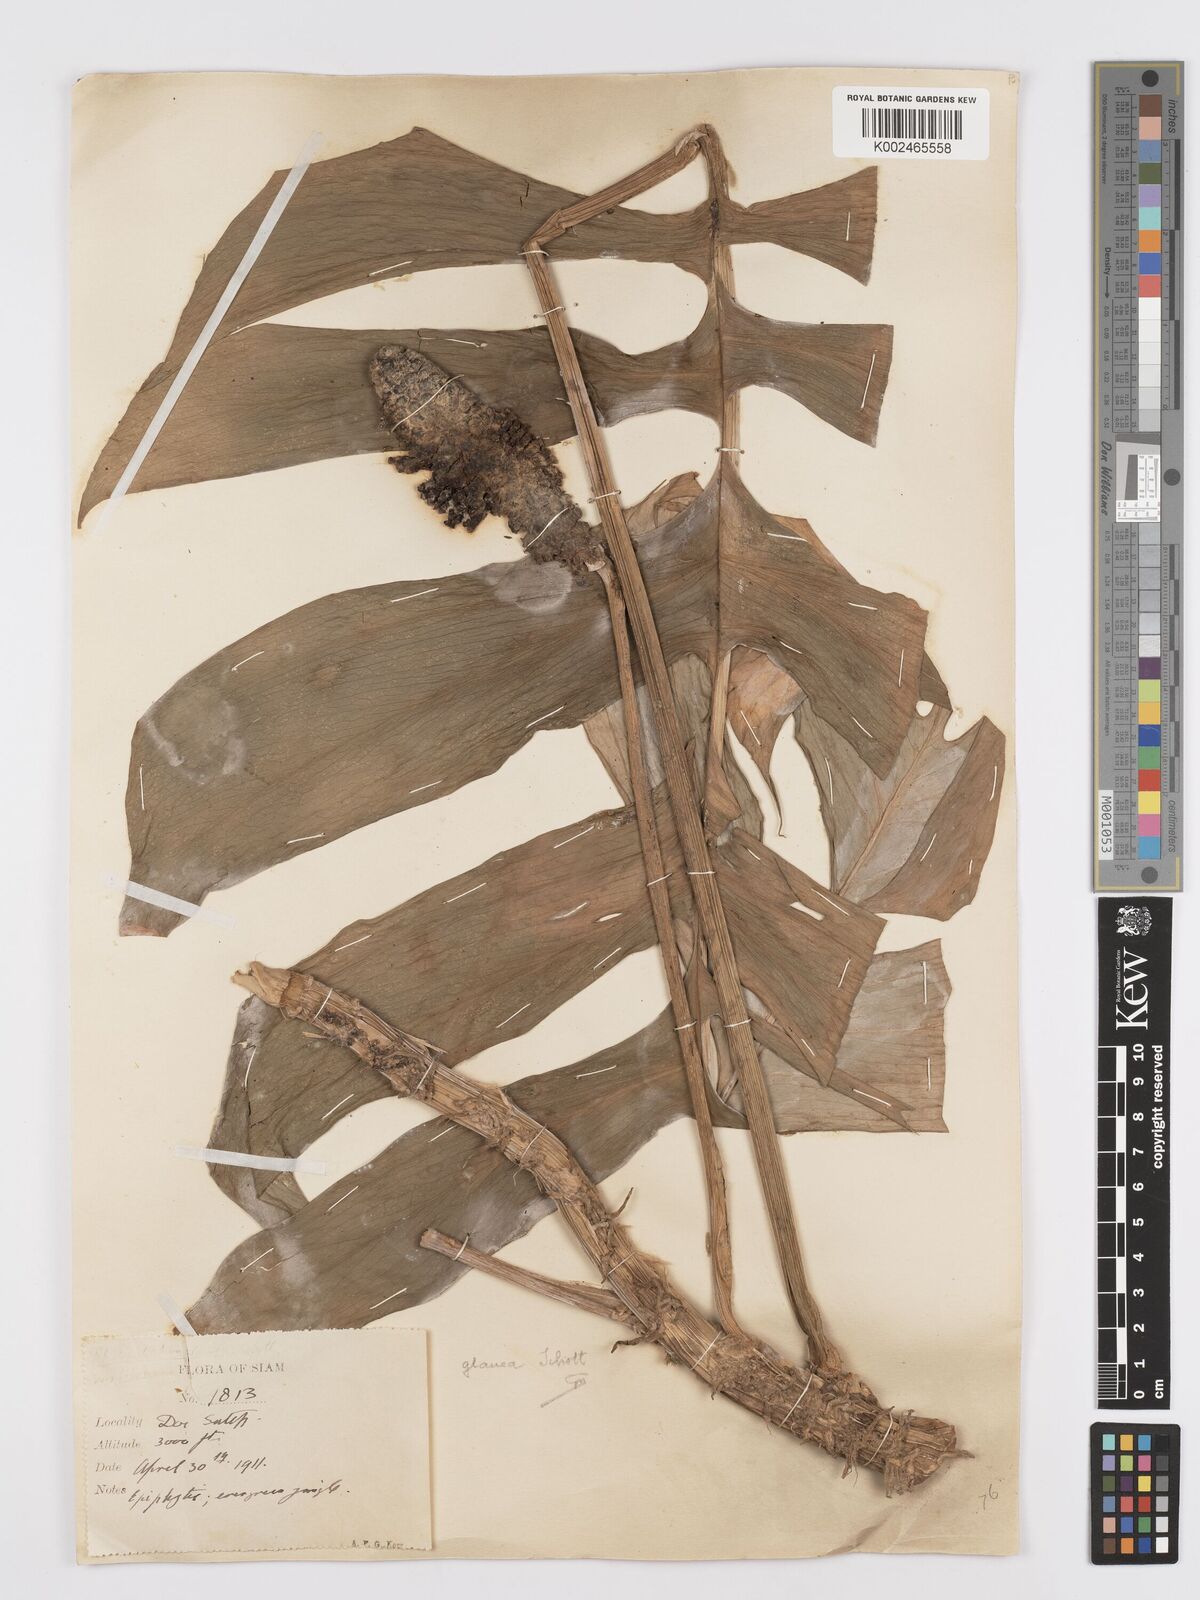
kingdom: Plantae
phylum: Tracheophyta
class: Liliopsida
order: Alismatales
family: Araceae
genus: Rhaphidophora
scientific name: Rhaphidophora glauca
